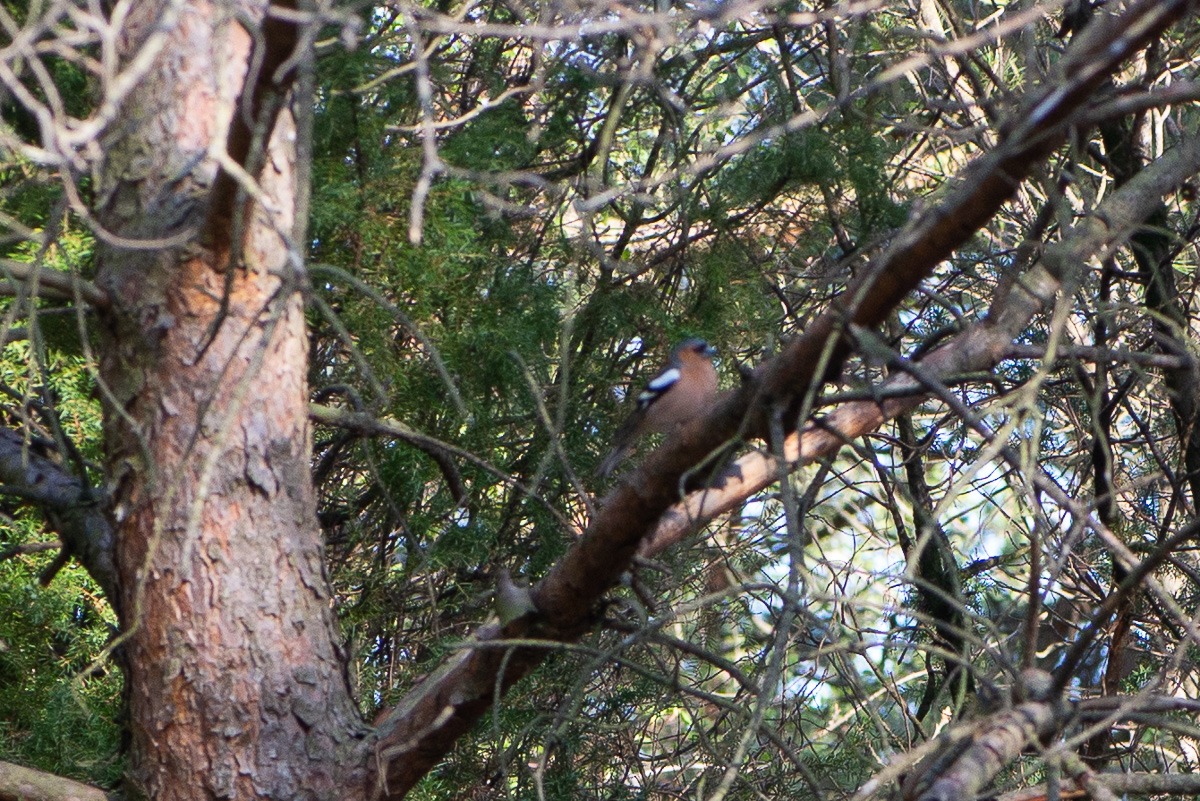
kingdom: Animalia
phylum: Chordata
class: Aves
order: Passeriformes
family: Fringillidae
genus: Fringilla
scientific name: Fringilla coelebs
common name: Bogfinke
